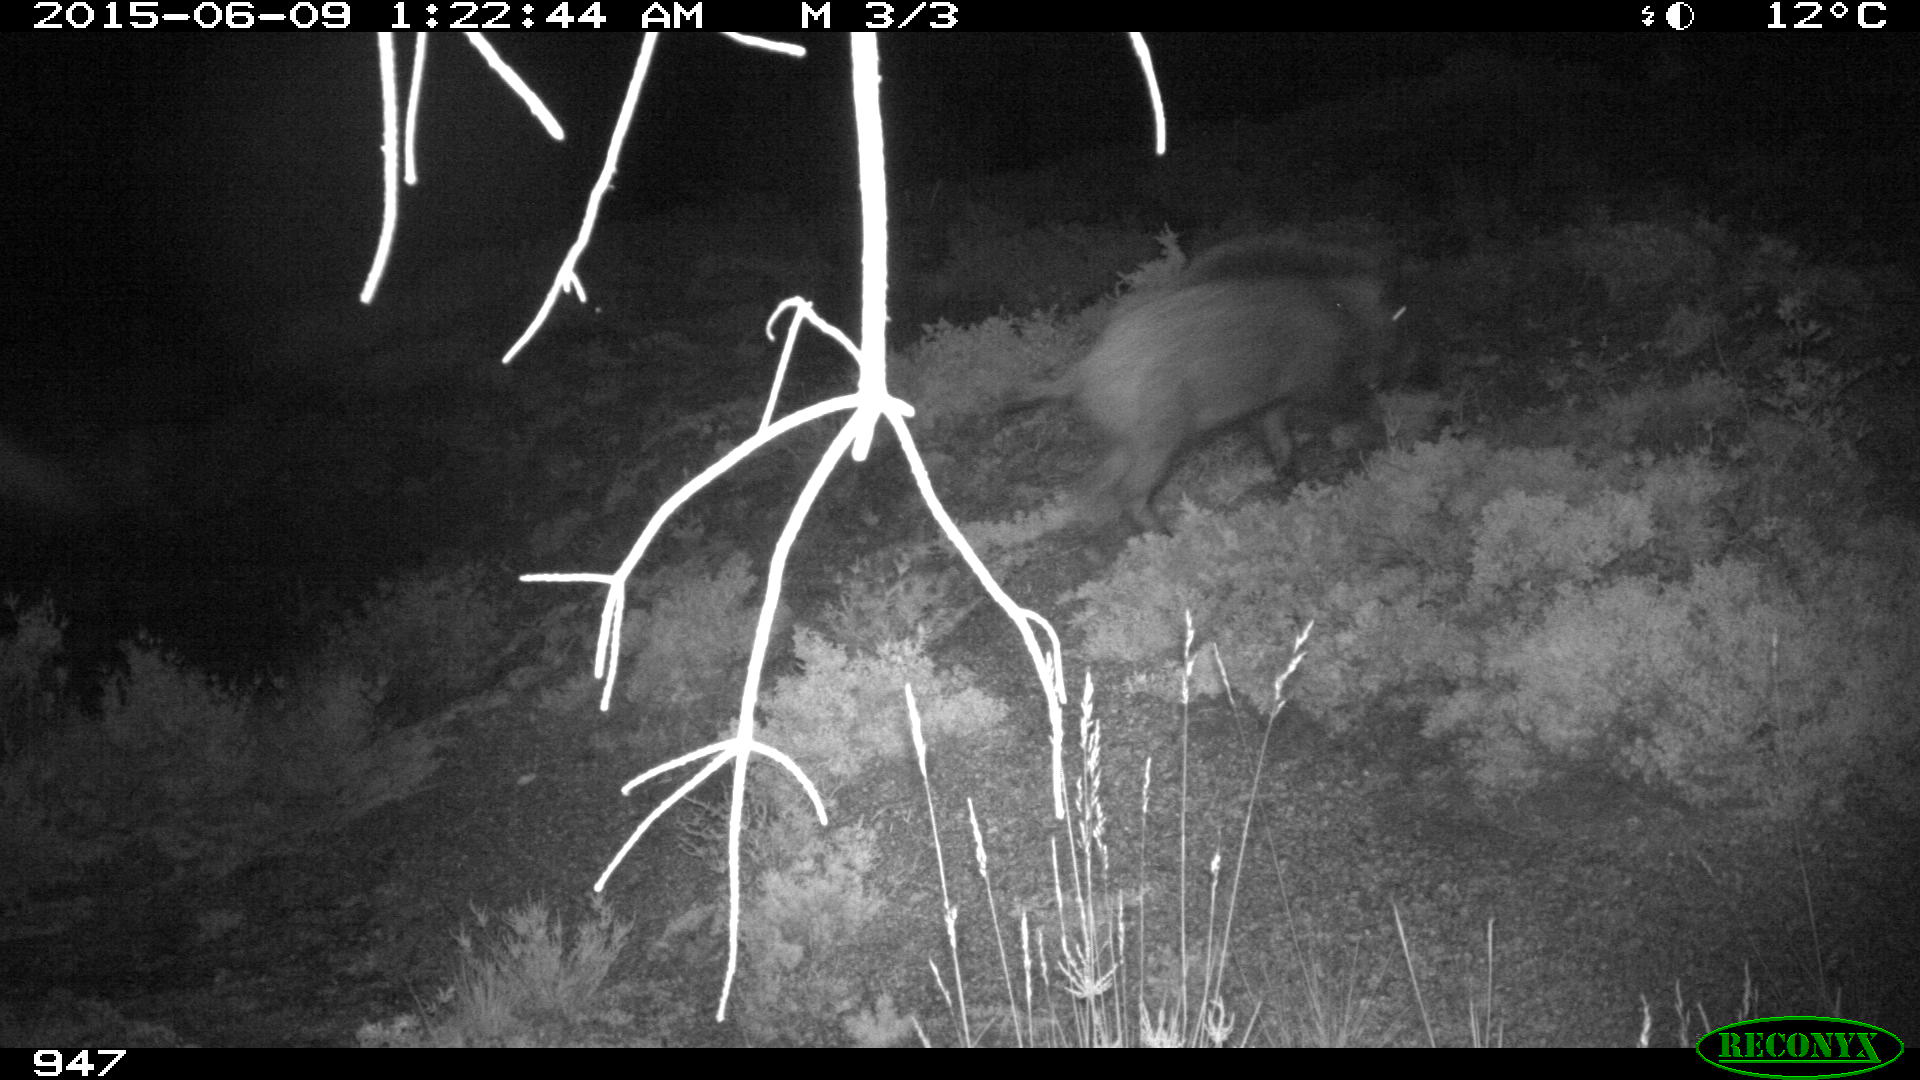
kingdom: Animalia
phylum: Chordata
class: Mammalia
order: Artiodactyla
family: Suidae
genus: Sus
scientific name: Sus scrofa
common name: Wild boar
